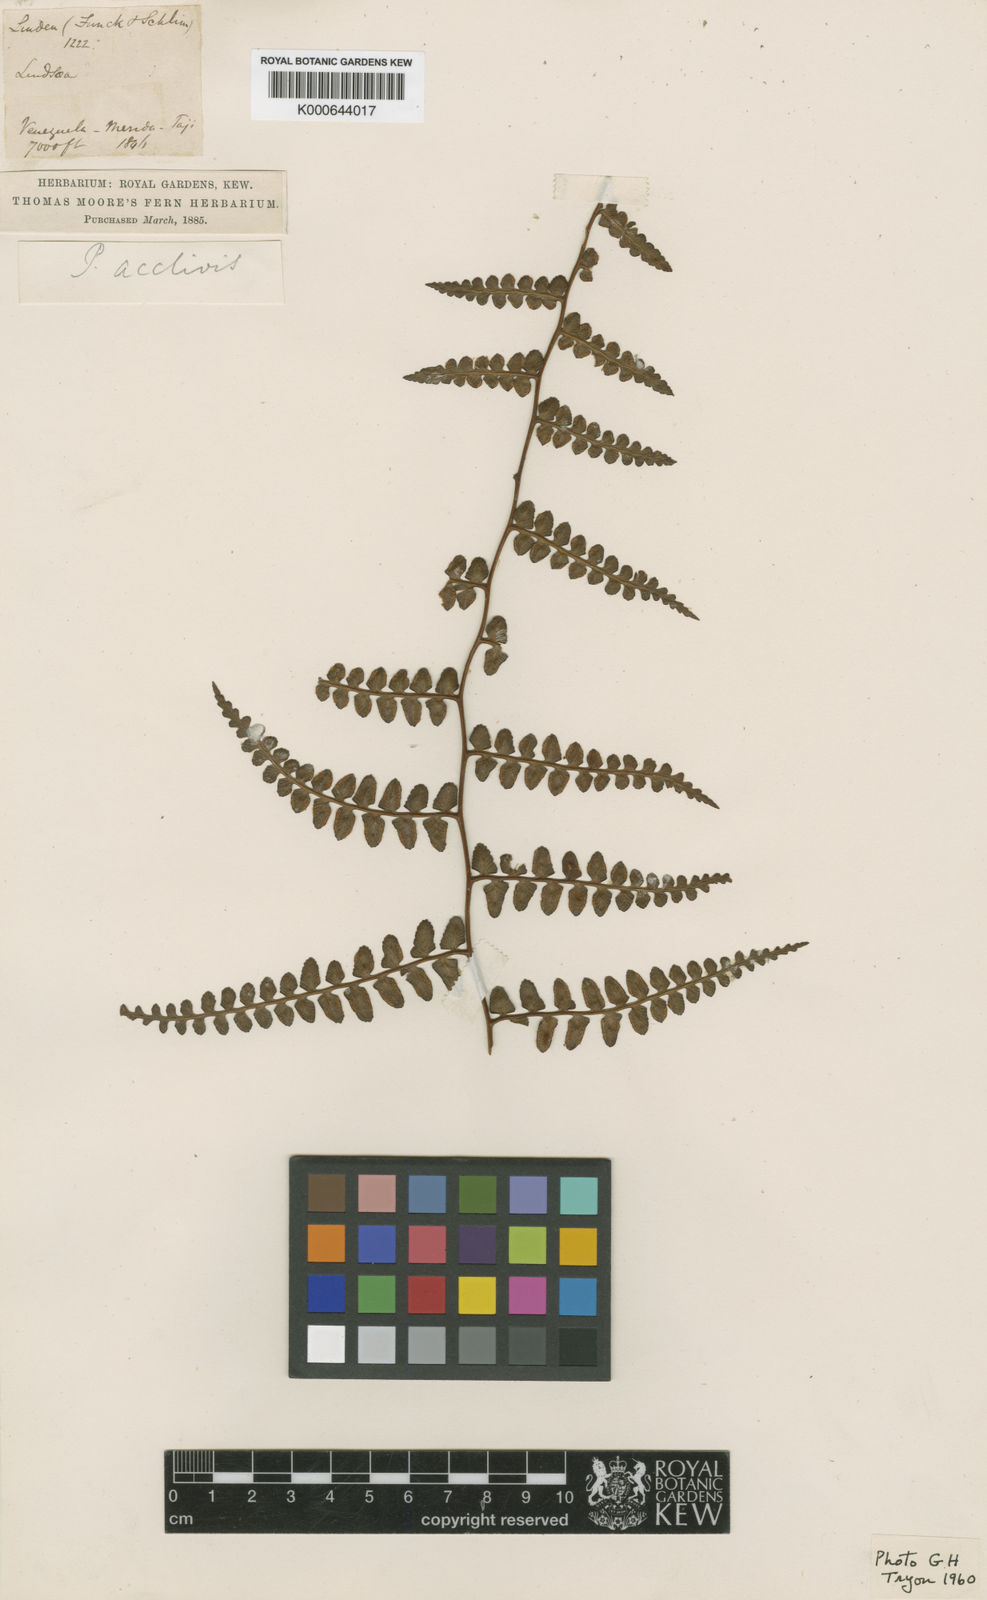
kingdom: Plantae
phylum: Tracheophyta
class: Polypodiopsida
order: Polypodiales
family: Dennstaedtiaceae
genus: Paesia
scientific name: Paesia acclivis
